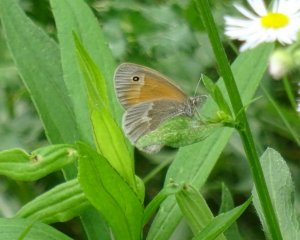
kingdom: Animalia
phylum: Arthropoda
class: Insecta
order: Lepidoptera
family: Nymphalidae
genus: Coenonympha
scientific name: Coenonympha tullia
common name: Large Heath
